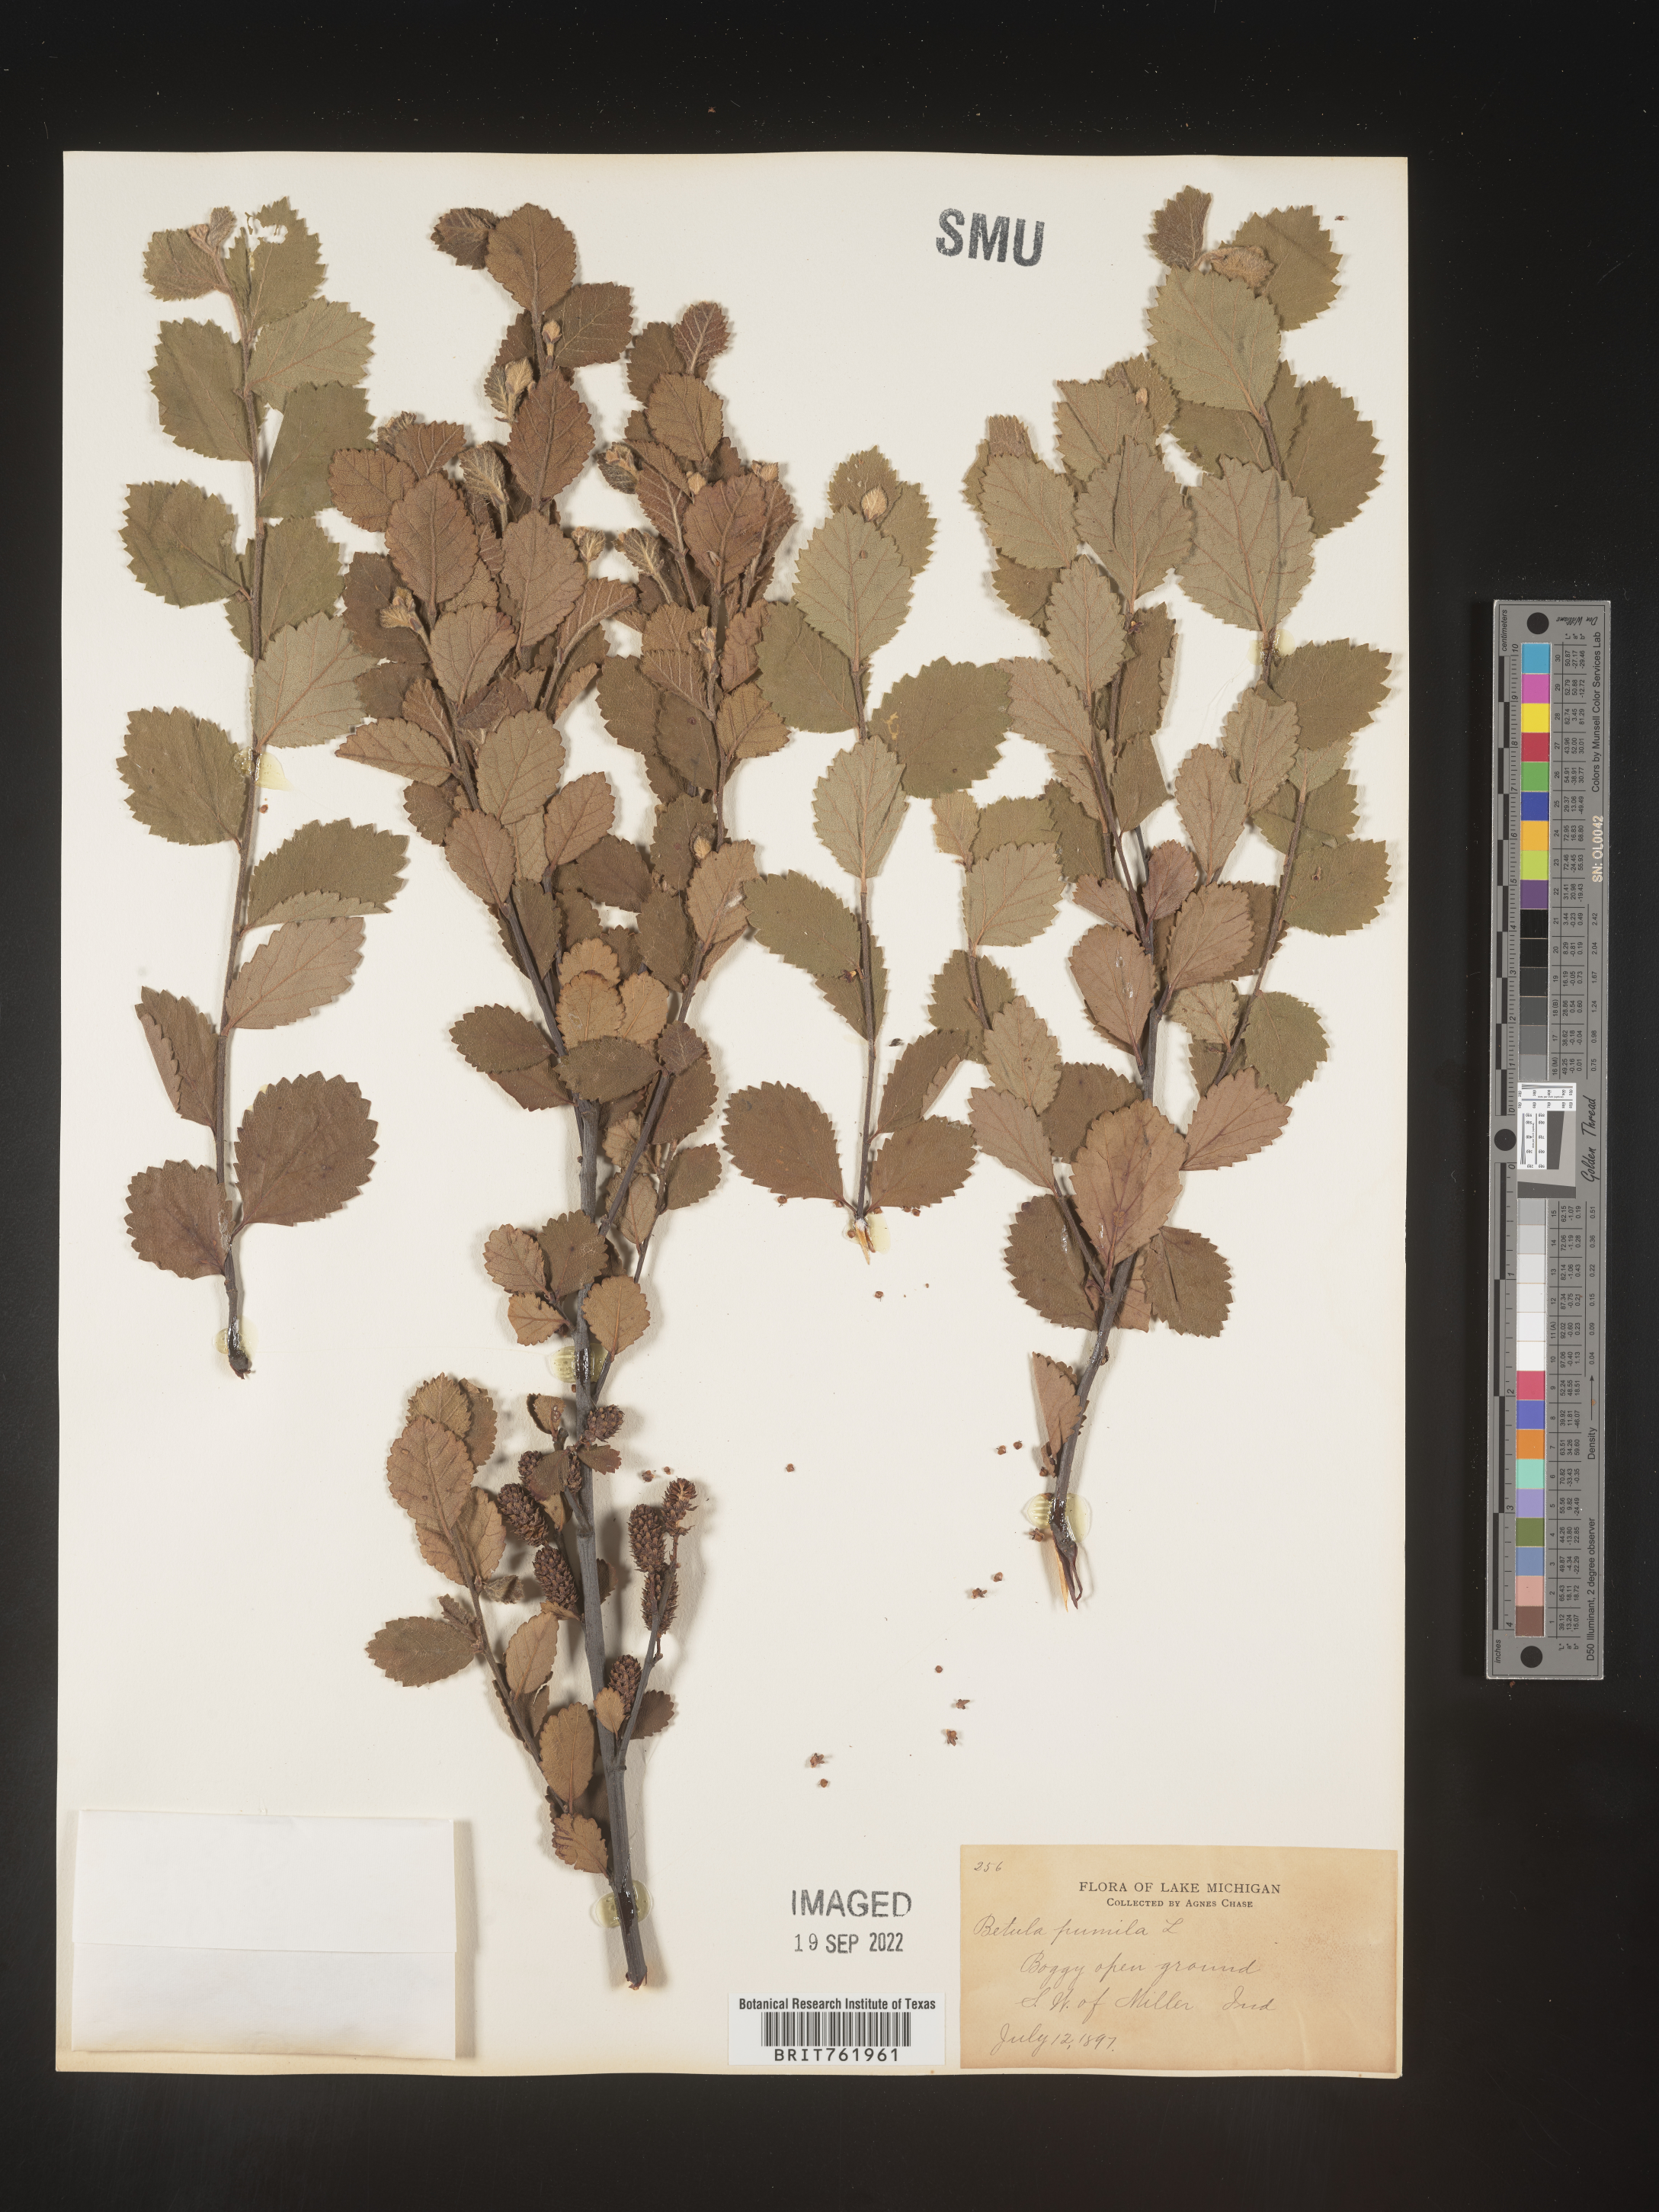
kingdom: Plantae
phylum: Tracheophyta
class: Magnoliopsida
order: Fagales
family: Betulaceae
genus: Betula
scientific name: Betula pumila
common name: Bog birch
